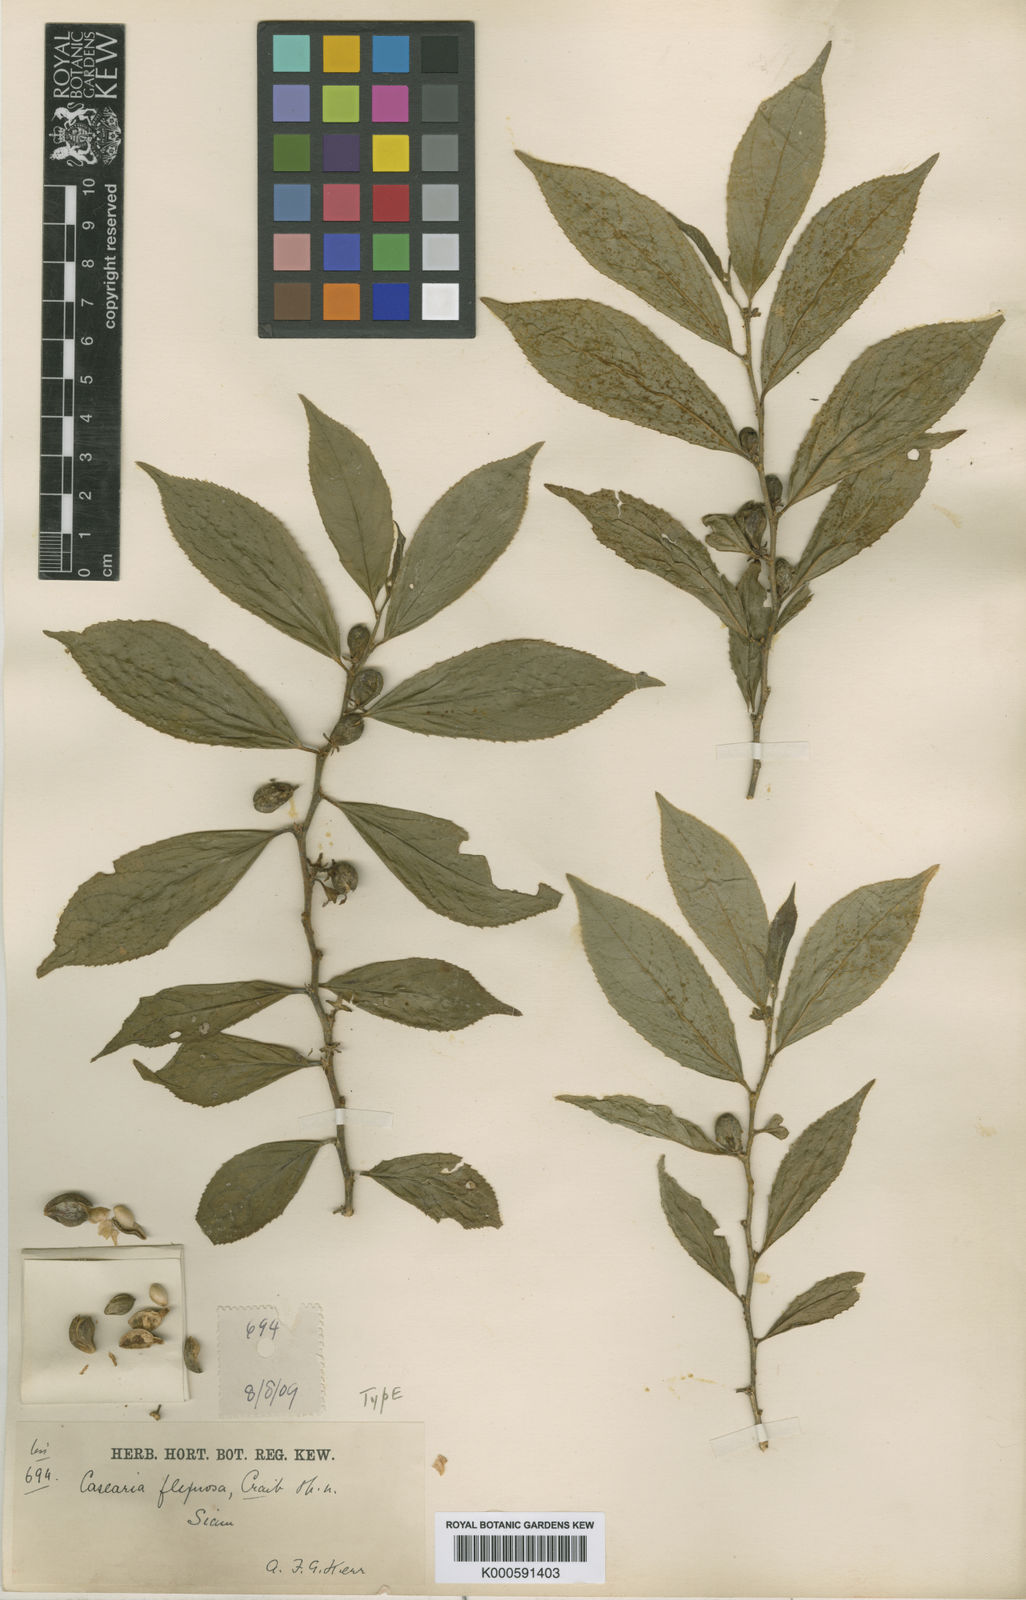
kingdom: Plantae
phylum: Tracheophyta
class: Magnoliopsida
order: Malpighiales
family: Salicaceae
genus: Casearia
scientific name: Casearia flexuosa
